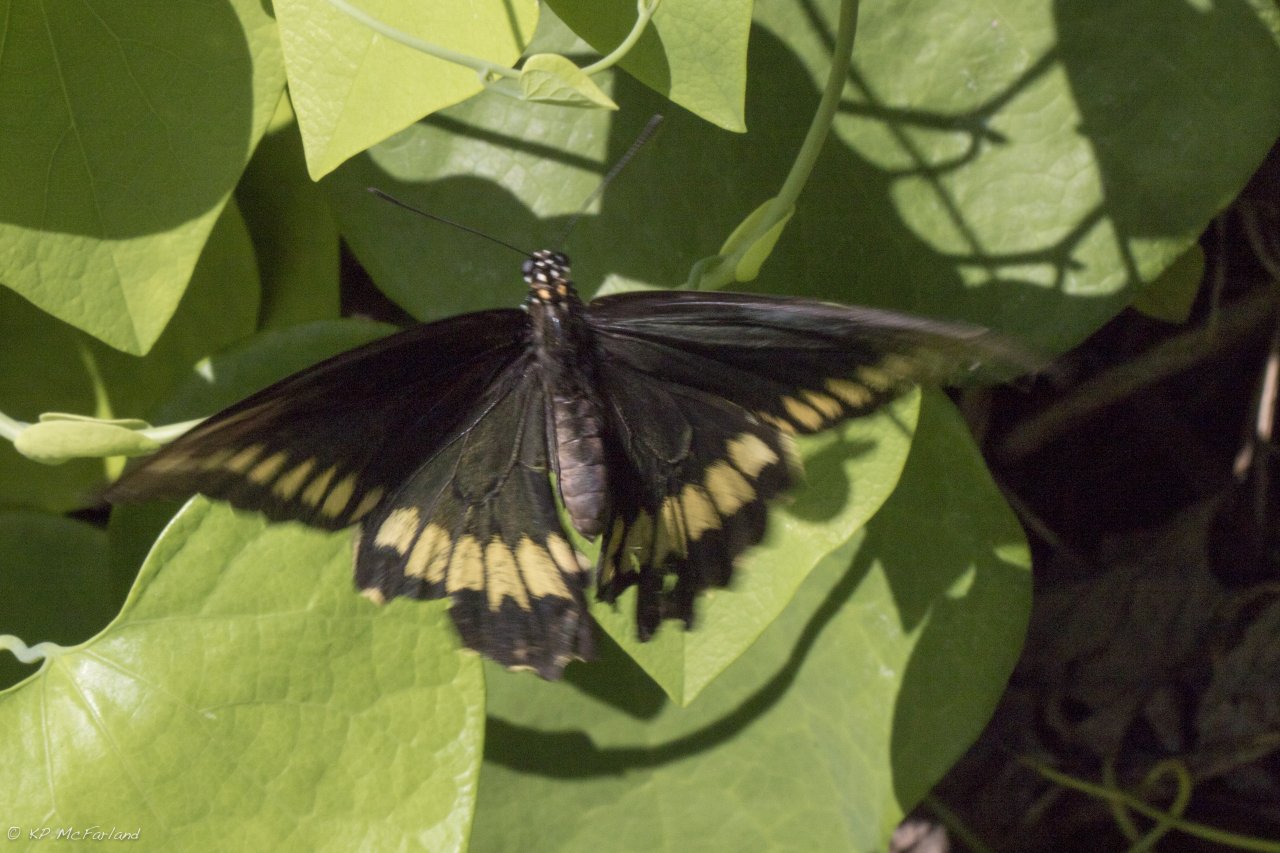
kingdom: Animalia
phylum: Arthropoda
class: Insecta
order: Lepidoptera
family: Papilionidae
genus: Battus
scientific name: Battus polydamas
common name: Polydamas Swallowtail
